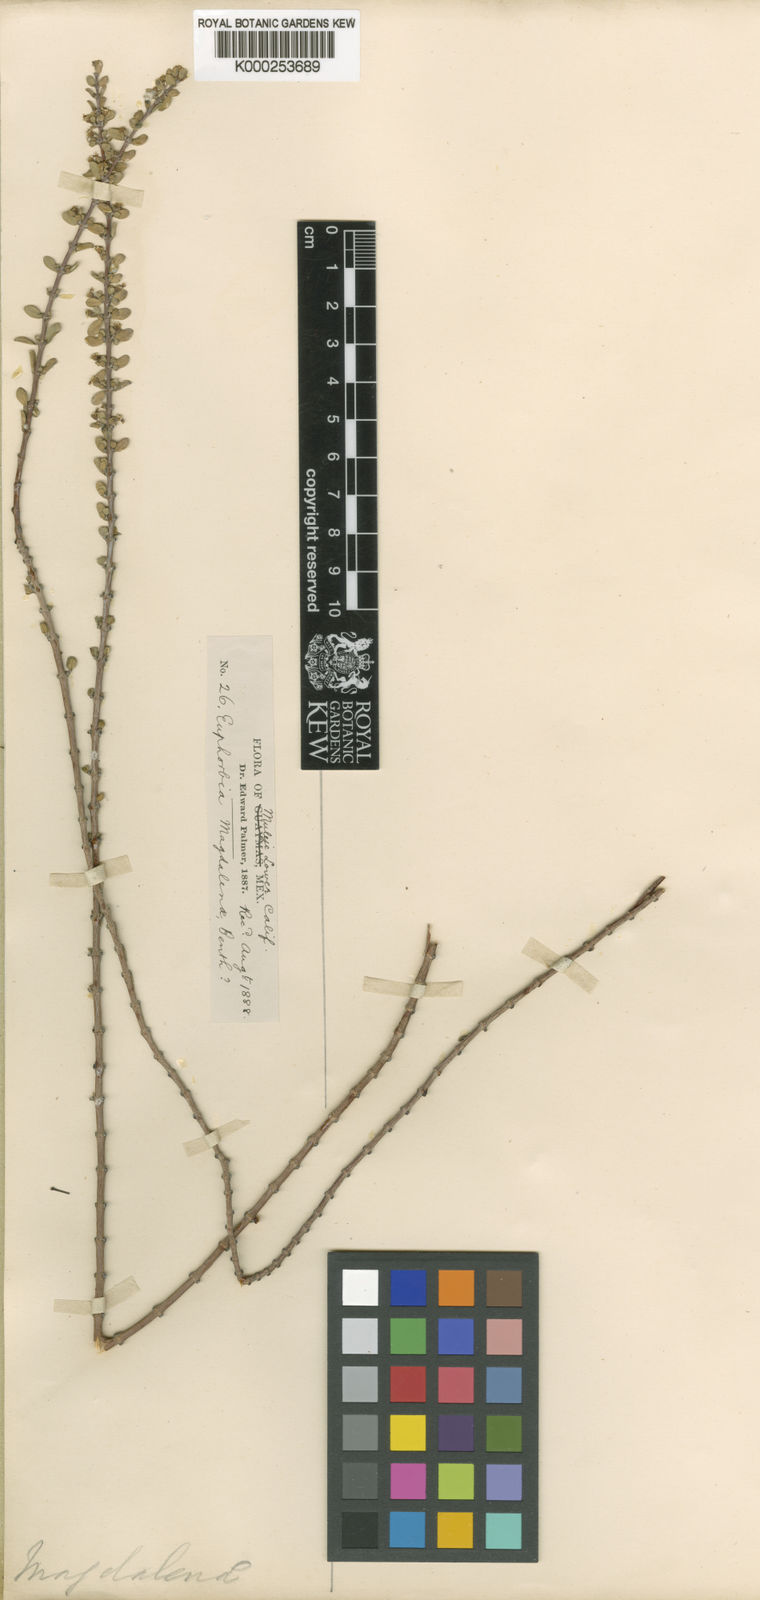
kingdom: Plantae
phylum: Tracheophyta
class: Magnoliopsida
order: Malpighiales
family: Euphorbiaceae
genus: Euphorbia
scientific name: Euphorbia magdalenae
